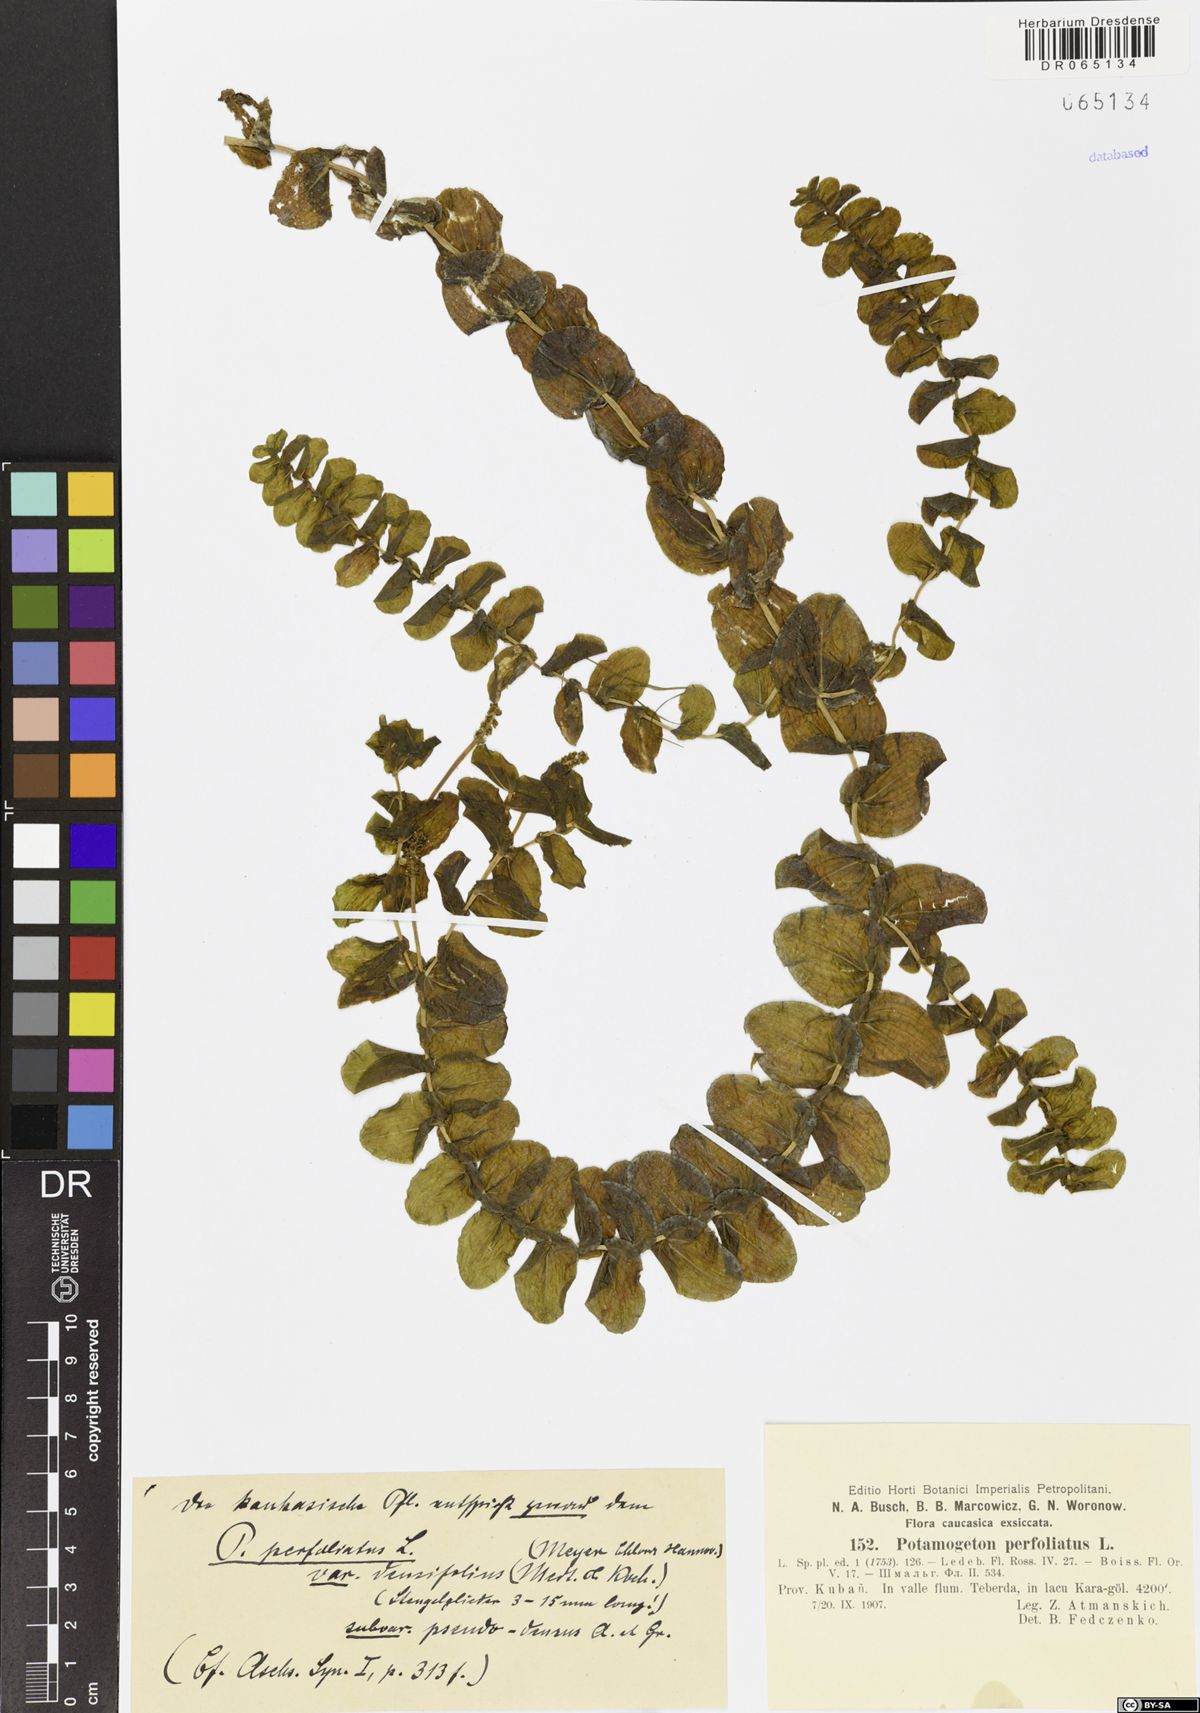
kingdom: Plantae
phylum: Tracheophyta
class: Liliopsida
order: Alismatales
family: Potamogetonaceae
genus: Potamogeton
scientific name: Potamogeton perfoliatus
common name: Perfoliate pondweed
